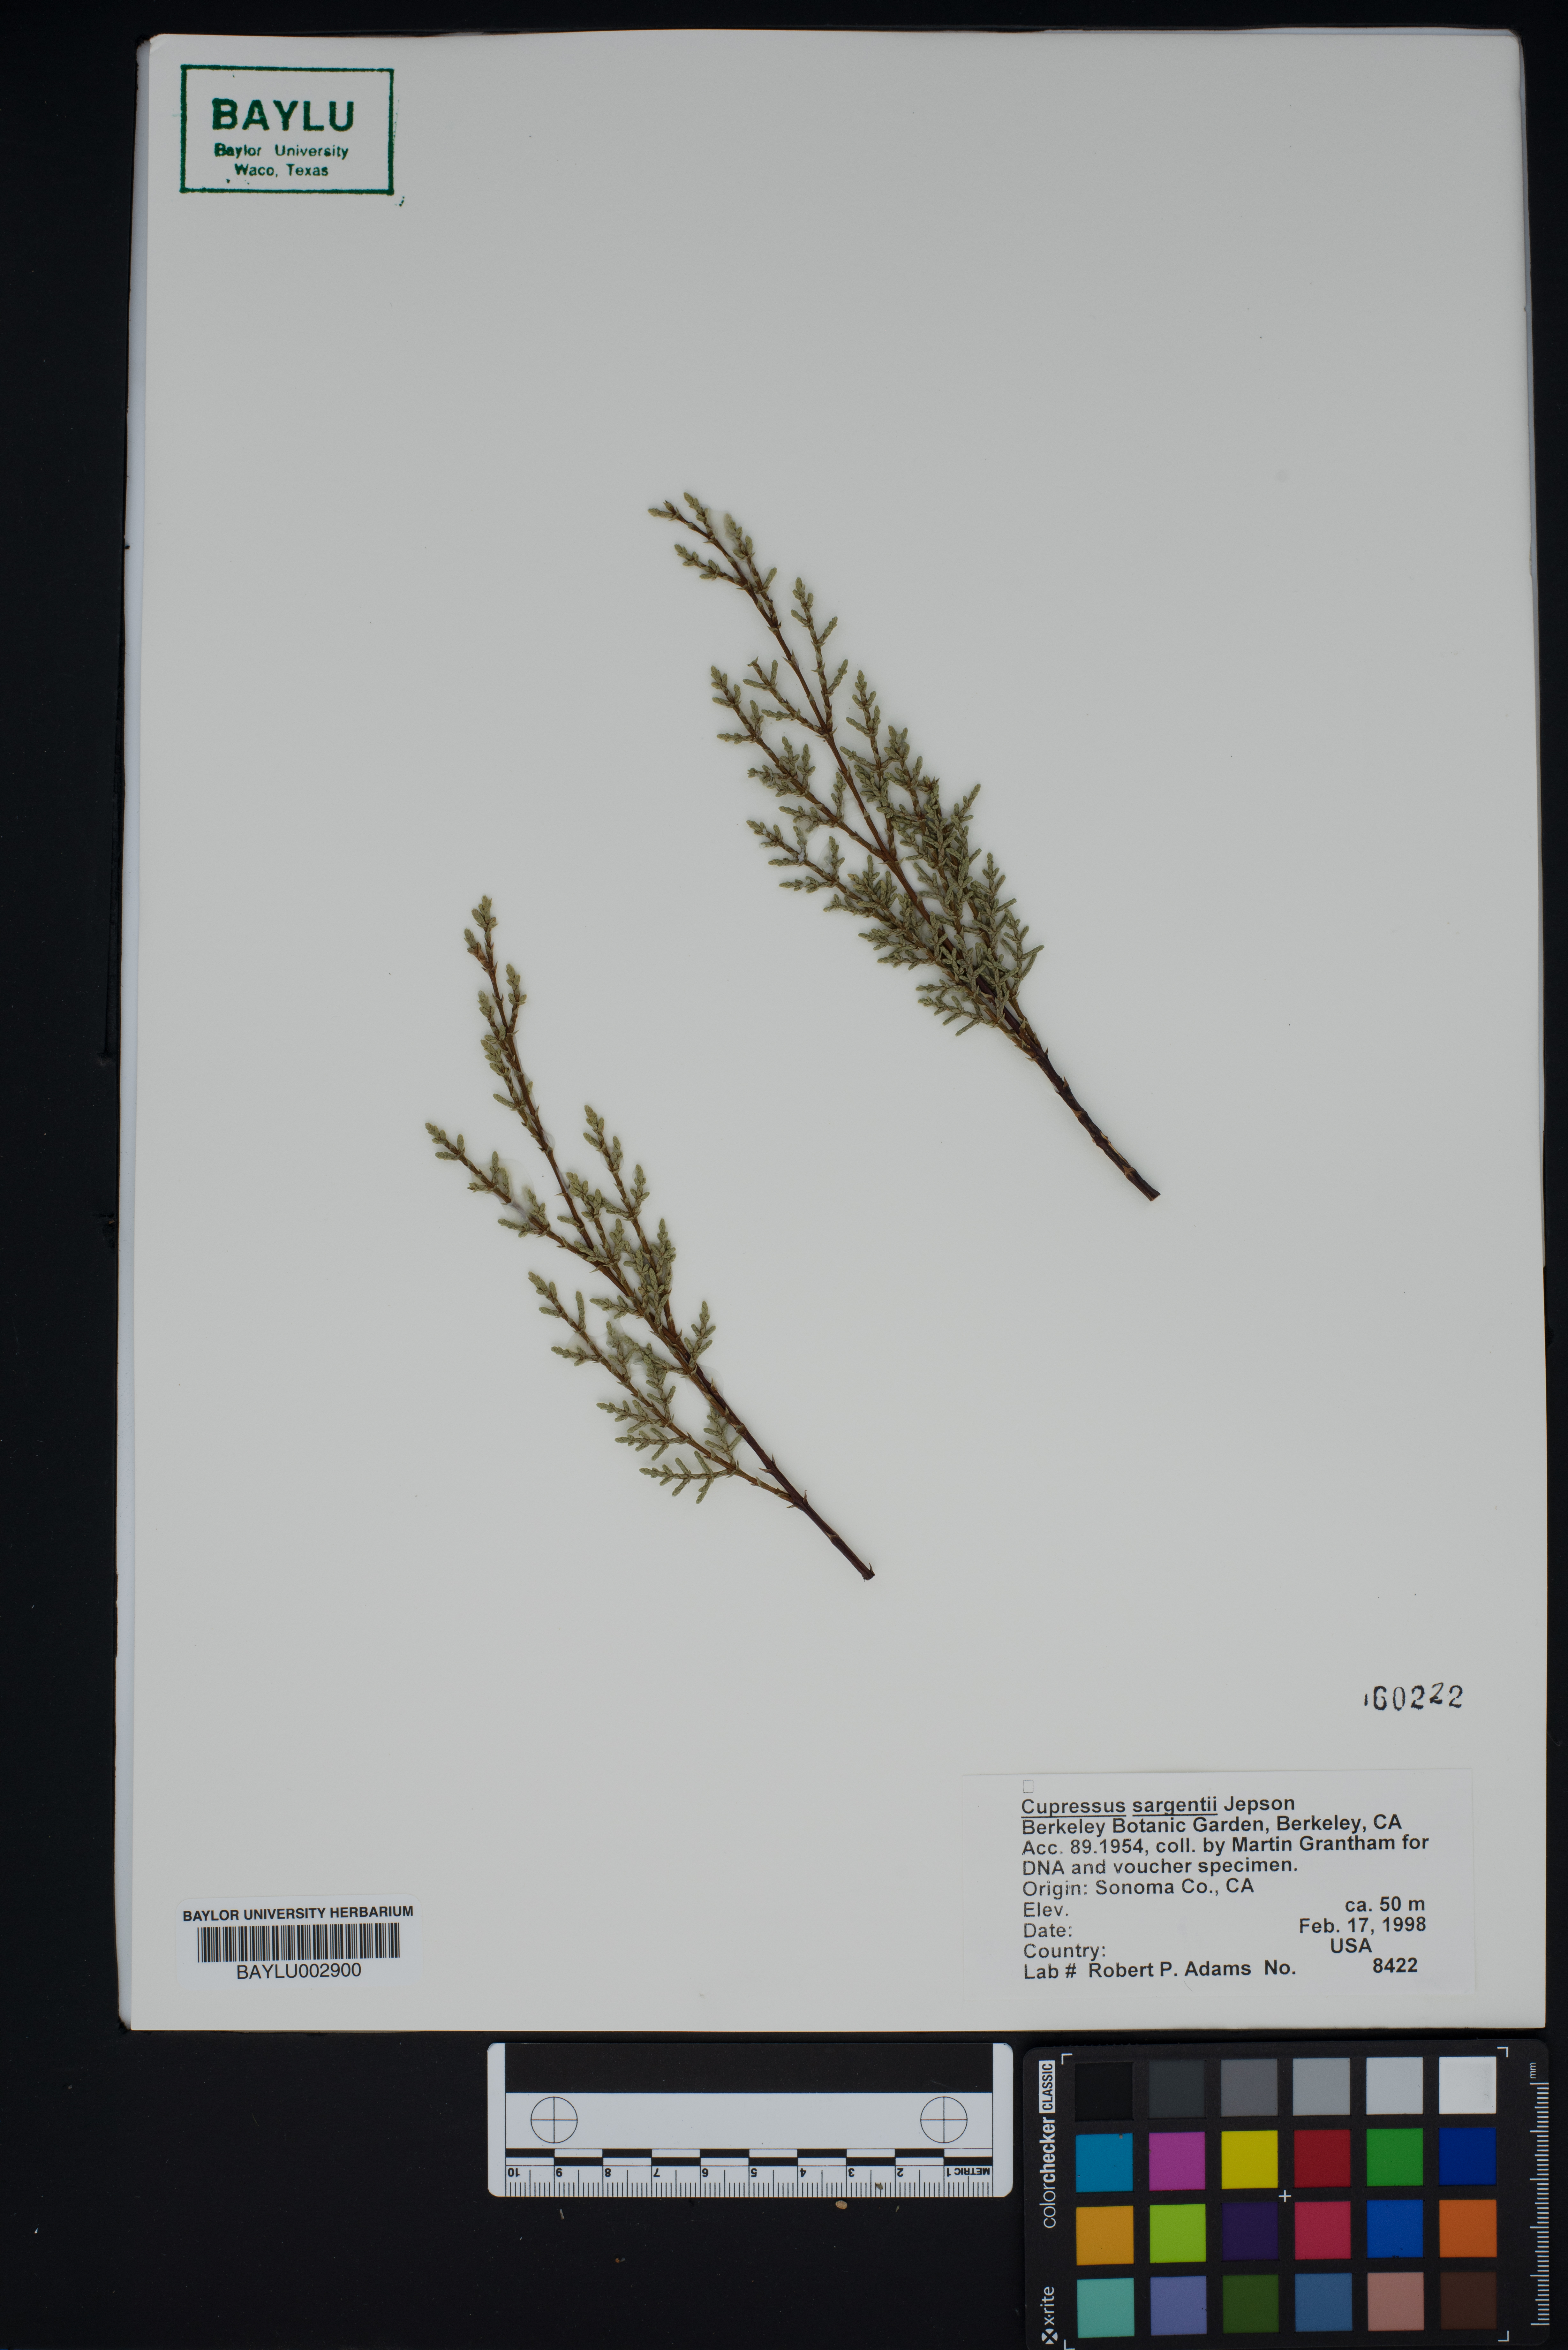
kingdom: Plantae
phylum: Tracheophyta
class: Pinopsida
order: Pinales
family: Cupressaceae
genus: Cupressus
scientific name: Cupressus sargentii
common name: Sargent cypress
